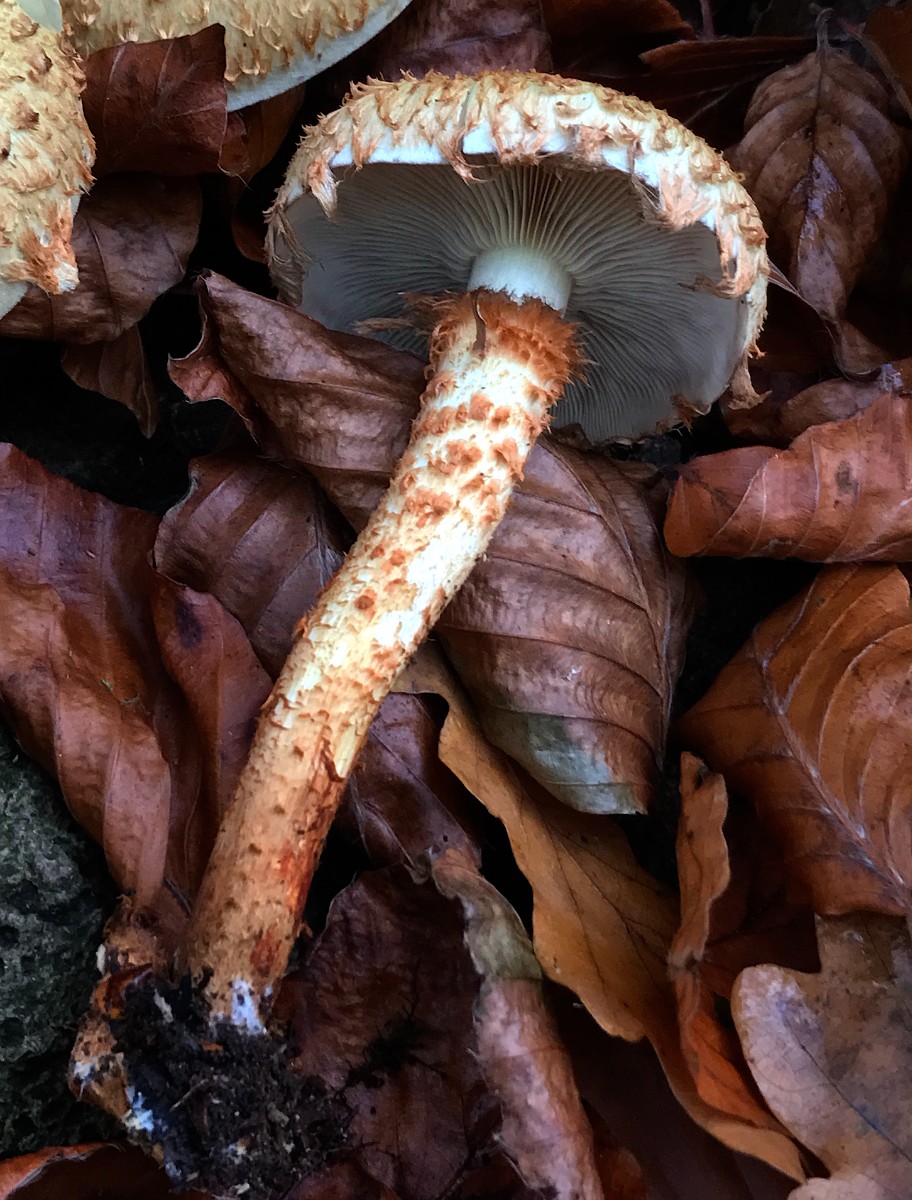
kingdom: Fungi
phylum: Basidiomycota
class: Agaricomycetes
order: Agaricales
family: Strophariaceae
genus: Pholiota
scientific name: Pholiota squarrosa
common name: krumskællet skælhat
